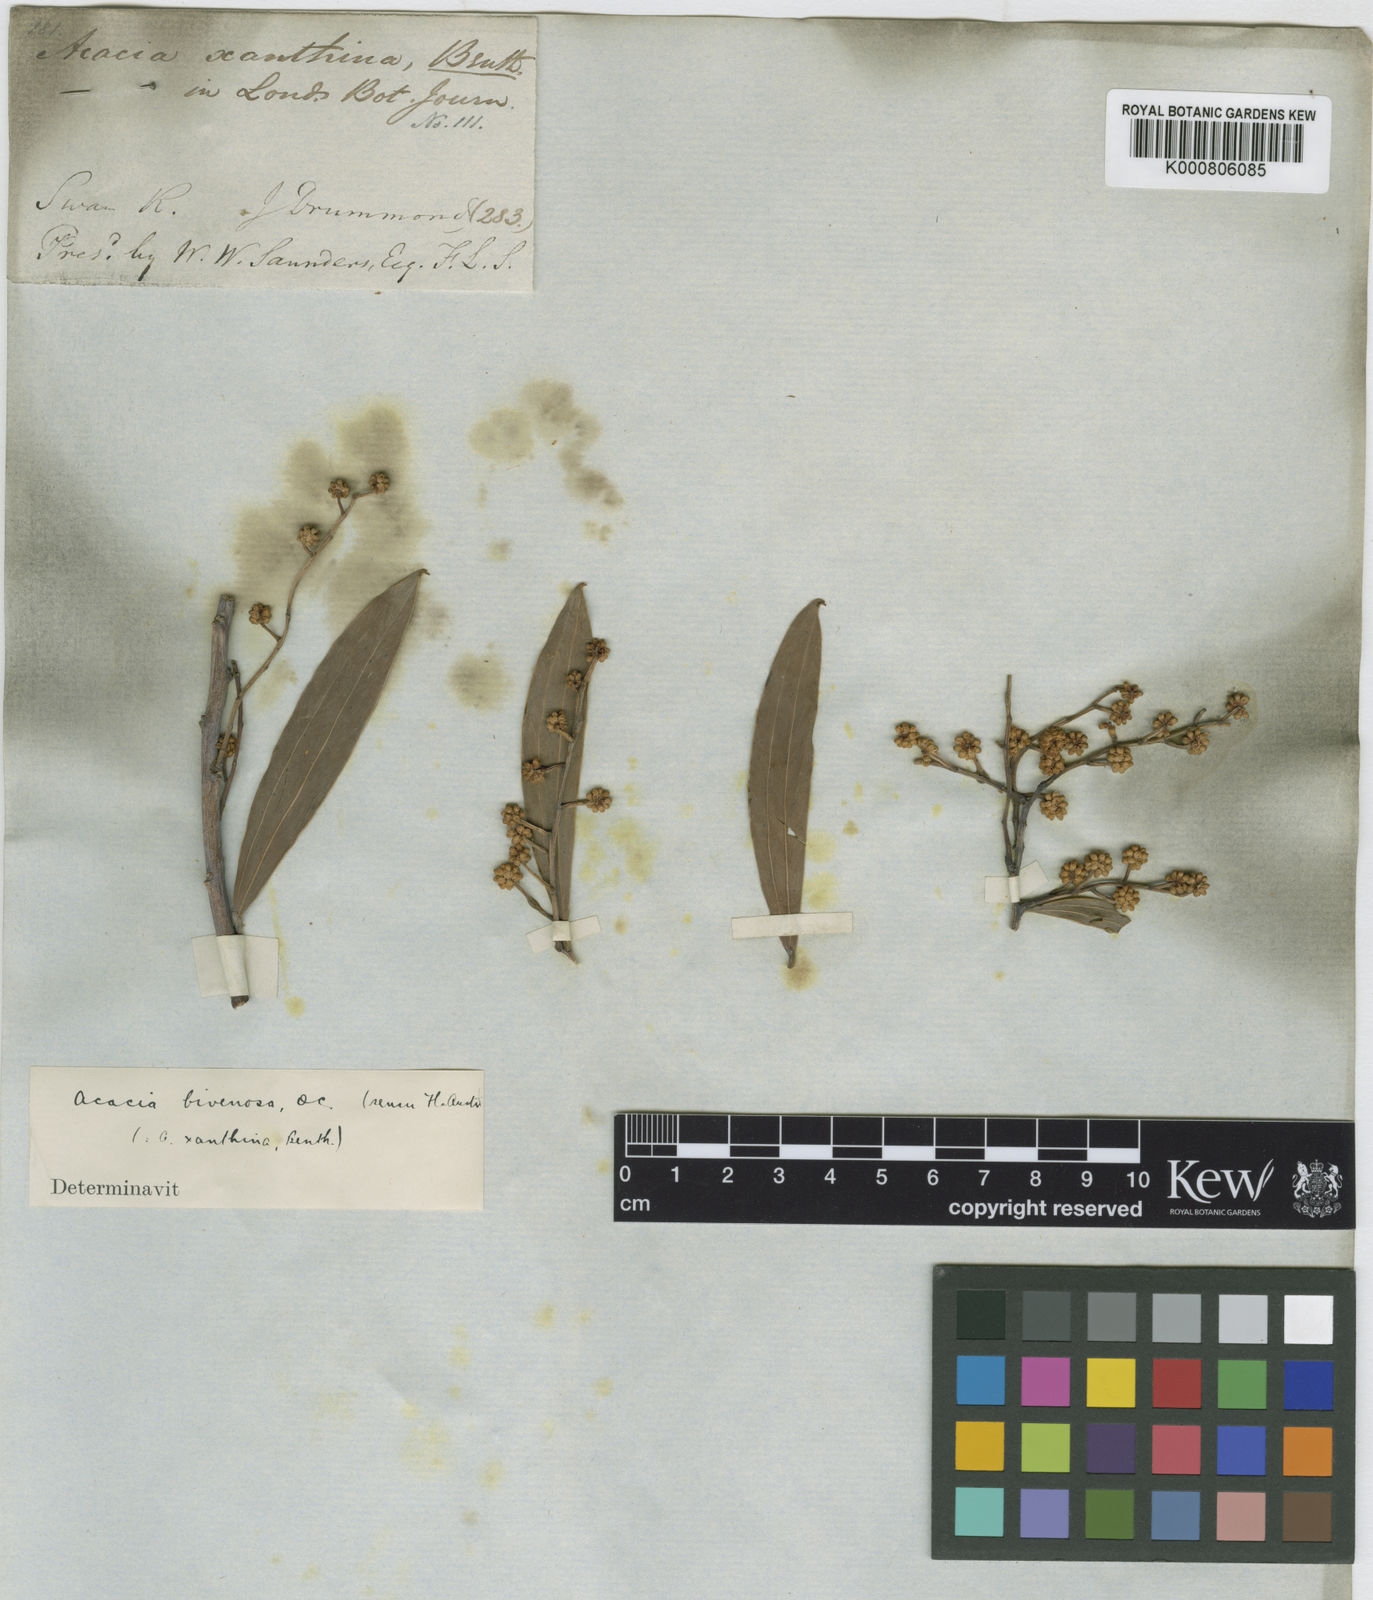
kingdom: Plantae
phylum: Tracheophyta
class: Magnoliopsida
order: Fabales
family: Fabaceae
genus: Acacia
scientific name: Acacia bivenosa
